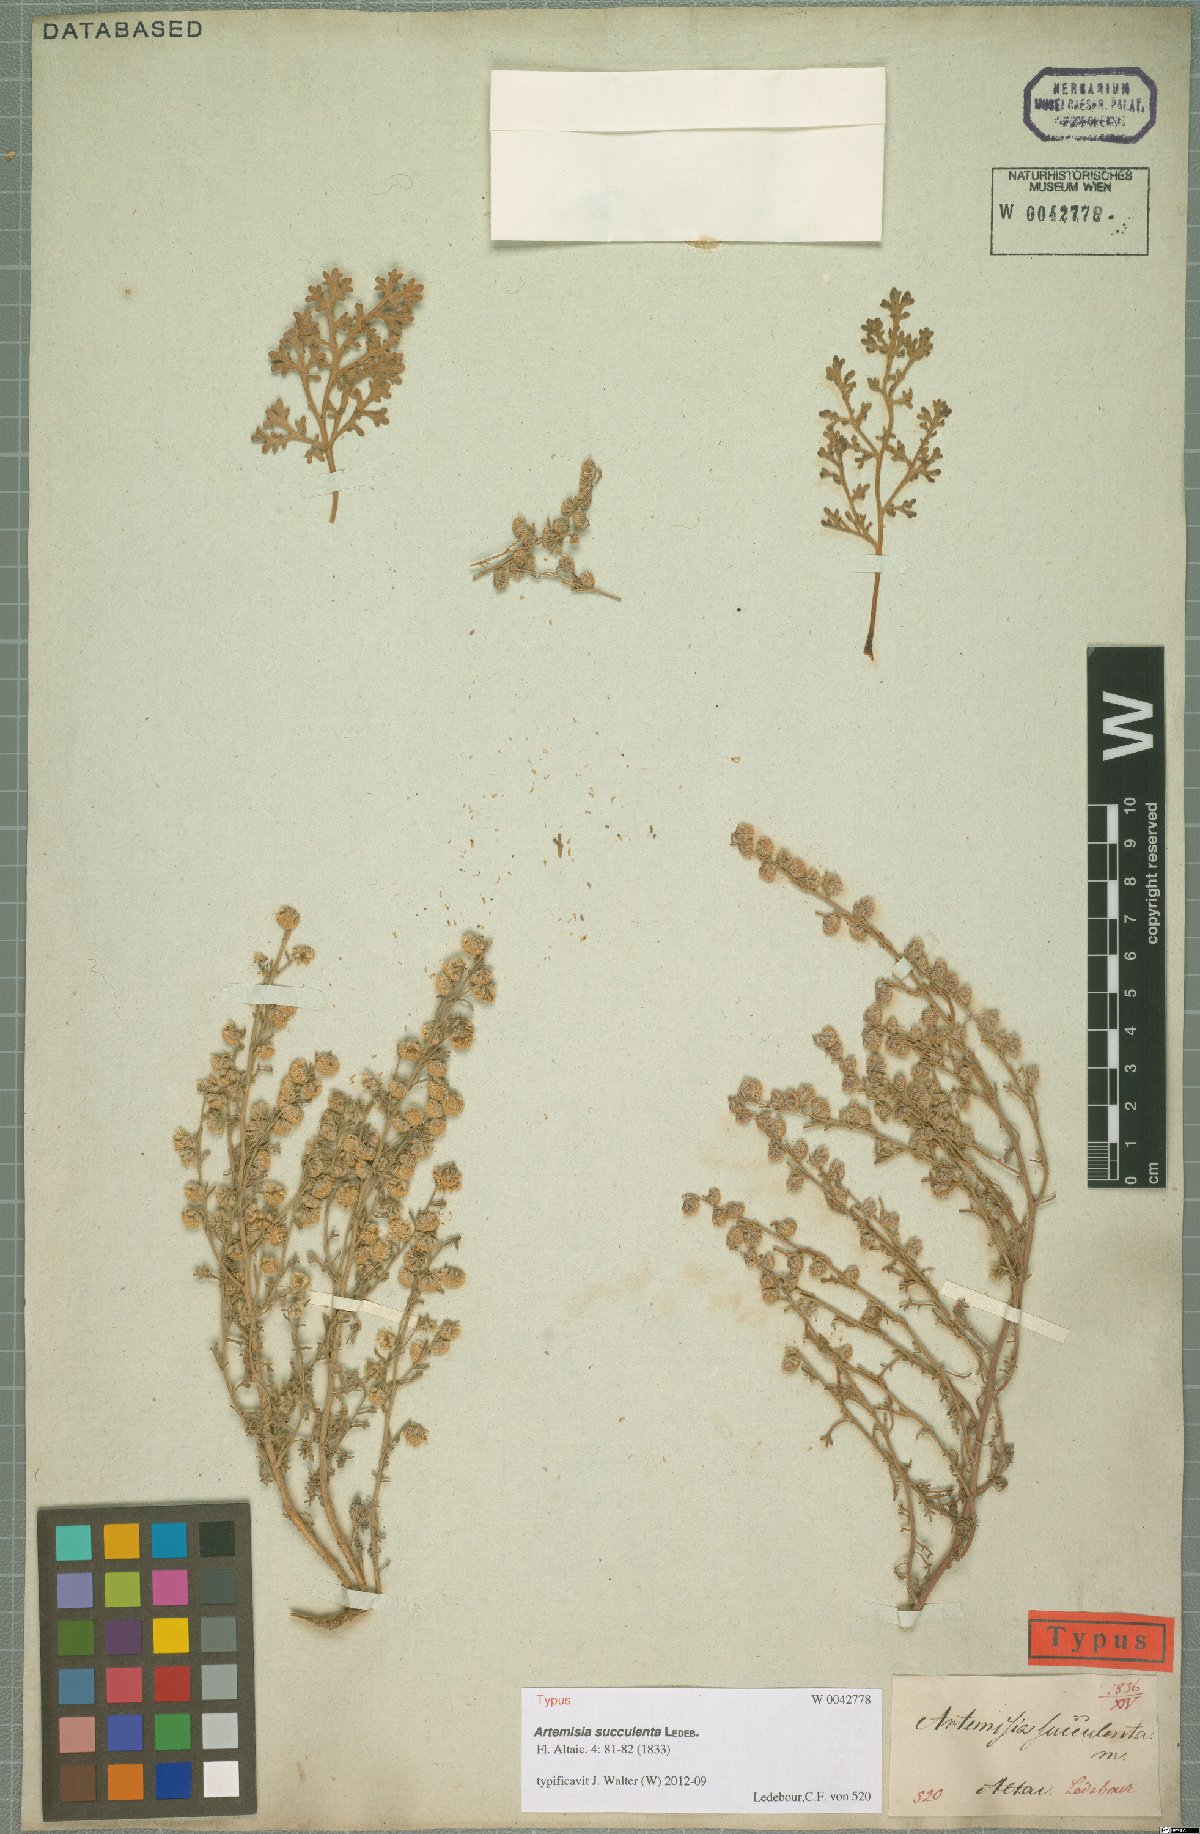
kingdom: Plantae
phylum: Tracheophyta
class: Magnoliopsida
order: Asterales
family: Asteraceae
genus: Artemisia
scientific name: Artemisia succulenta
